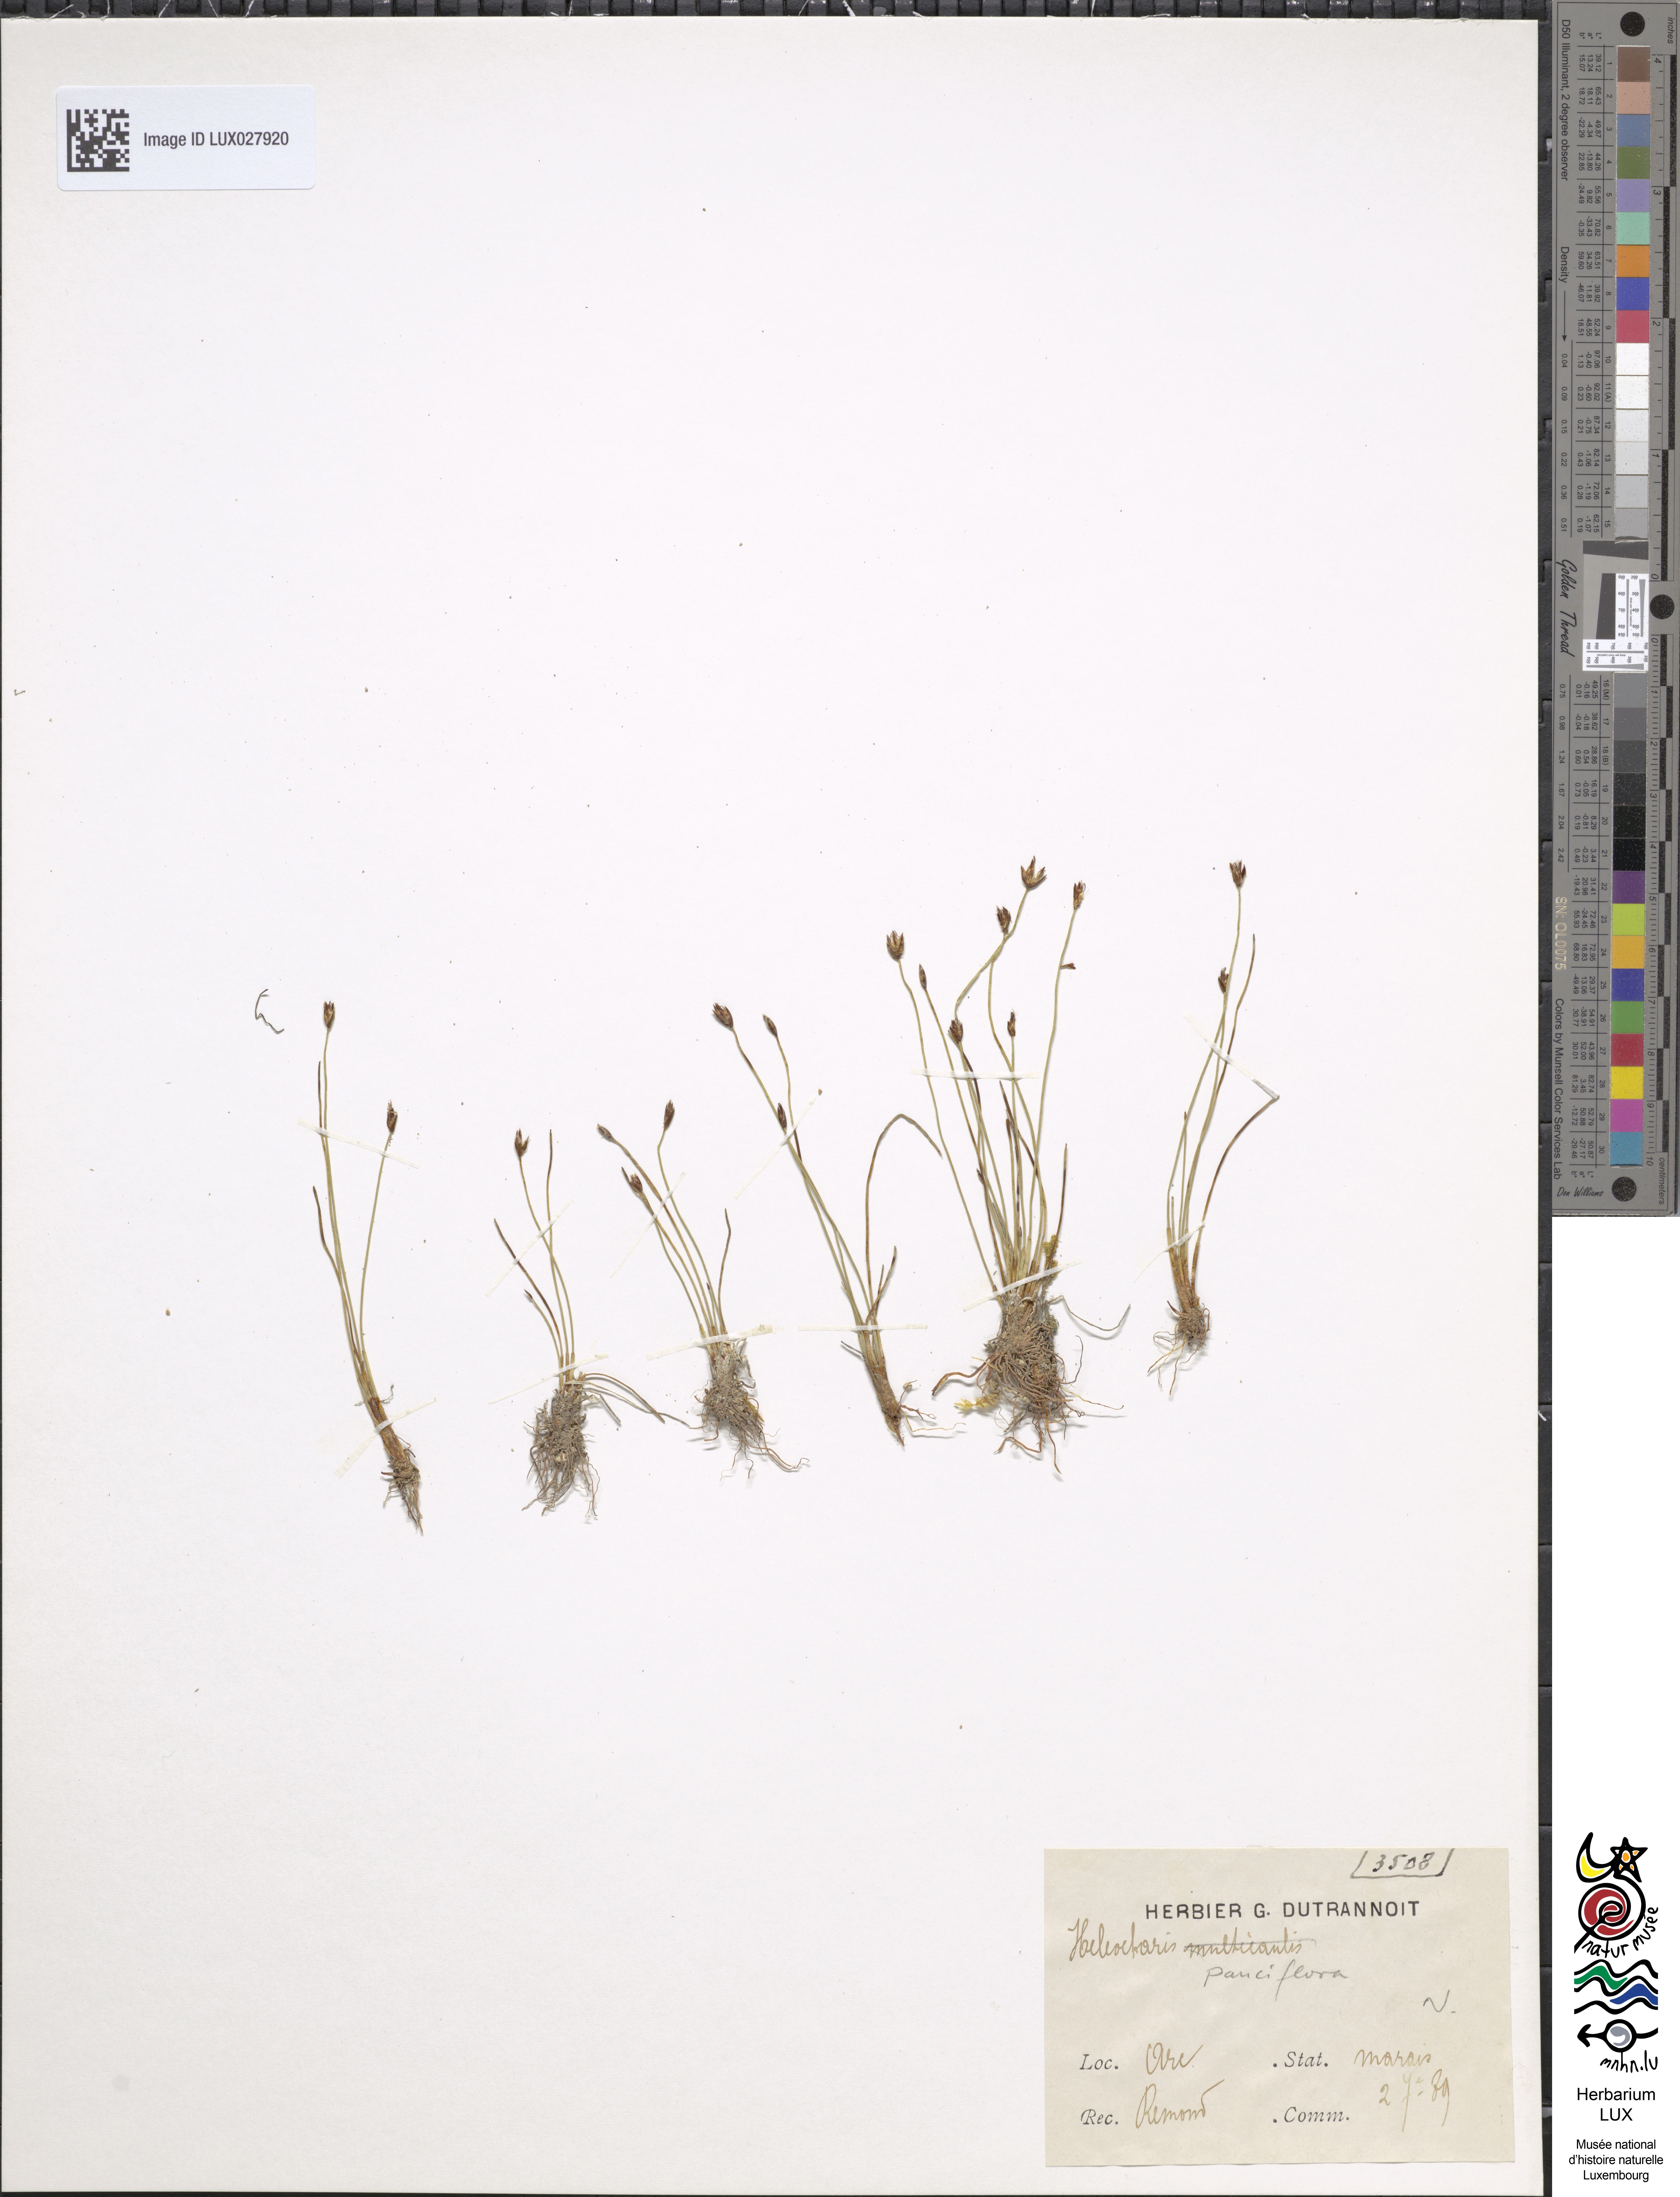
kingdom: Plantae
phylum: Tracheophyta
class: Liliopsida
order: Poales
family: Cyperaceae
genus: Eleocharis
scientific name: Eleocharis multicaulis
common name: Many-stalked spike-rush
